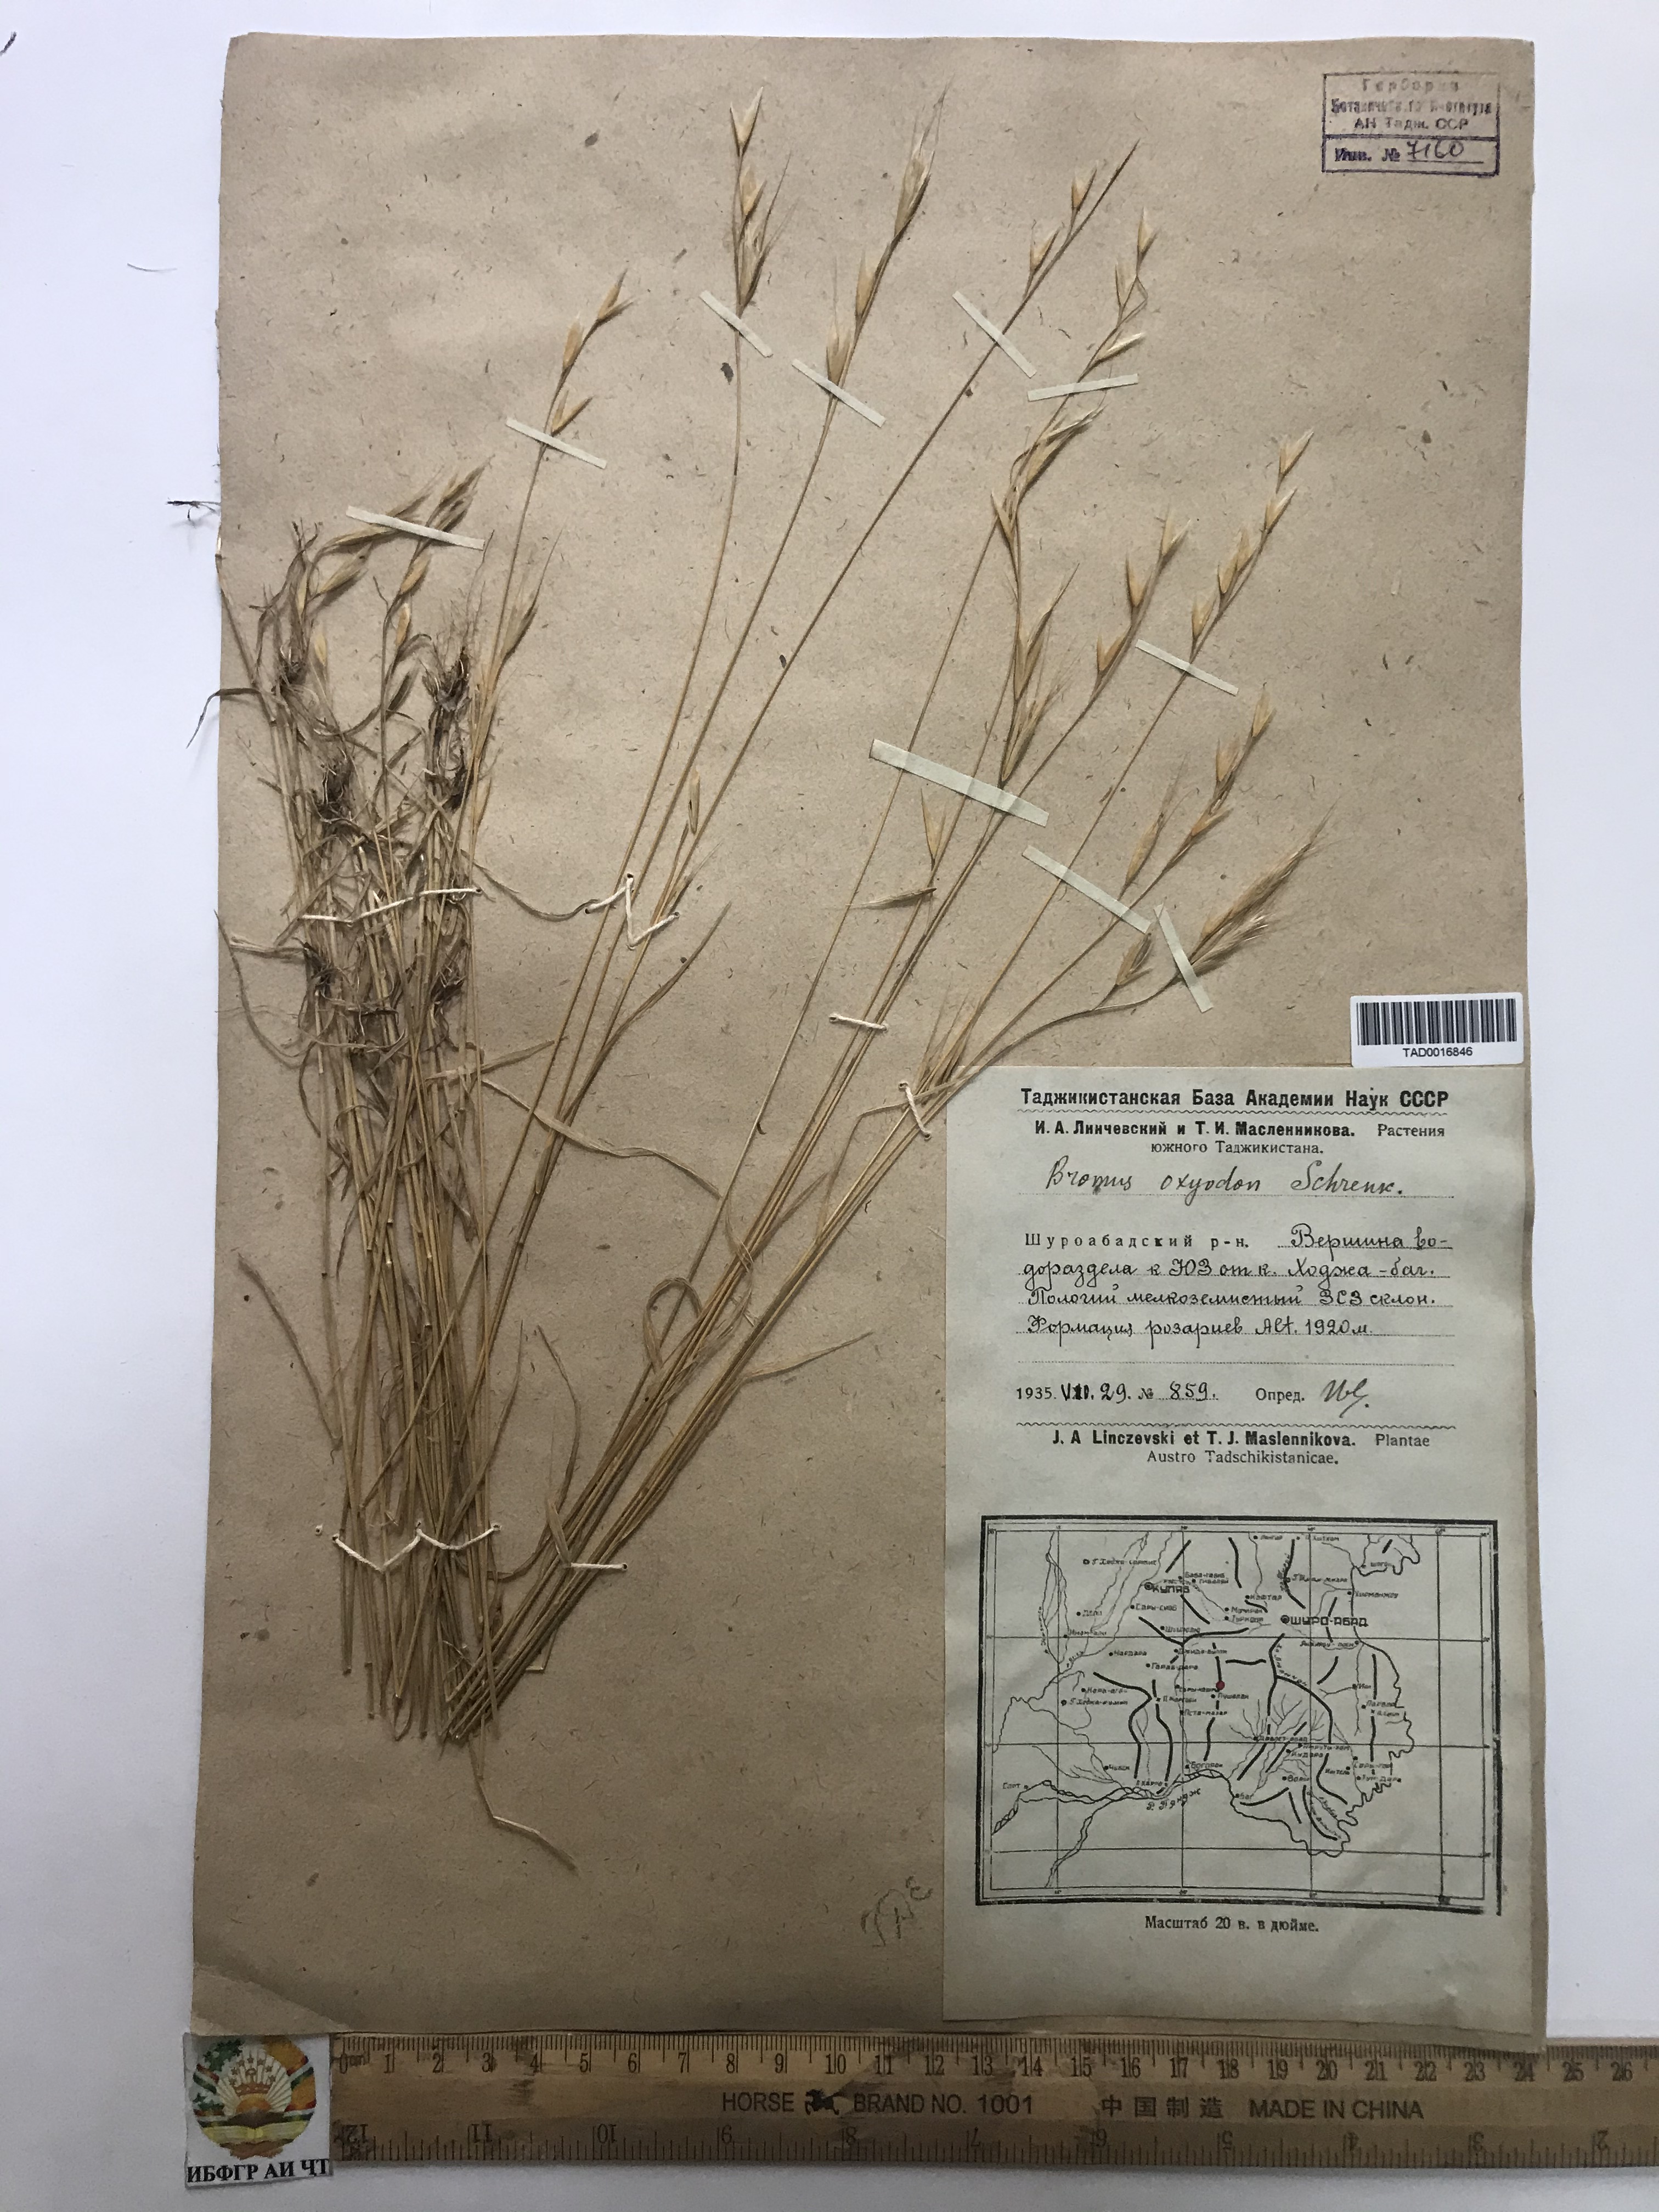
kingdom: Plantae
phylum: Tracheophyta
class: Liliopsida
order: Poales
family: Poaceae
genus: Bromus
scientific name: Bromus oxyodon
